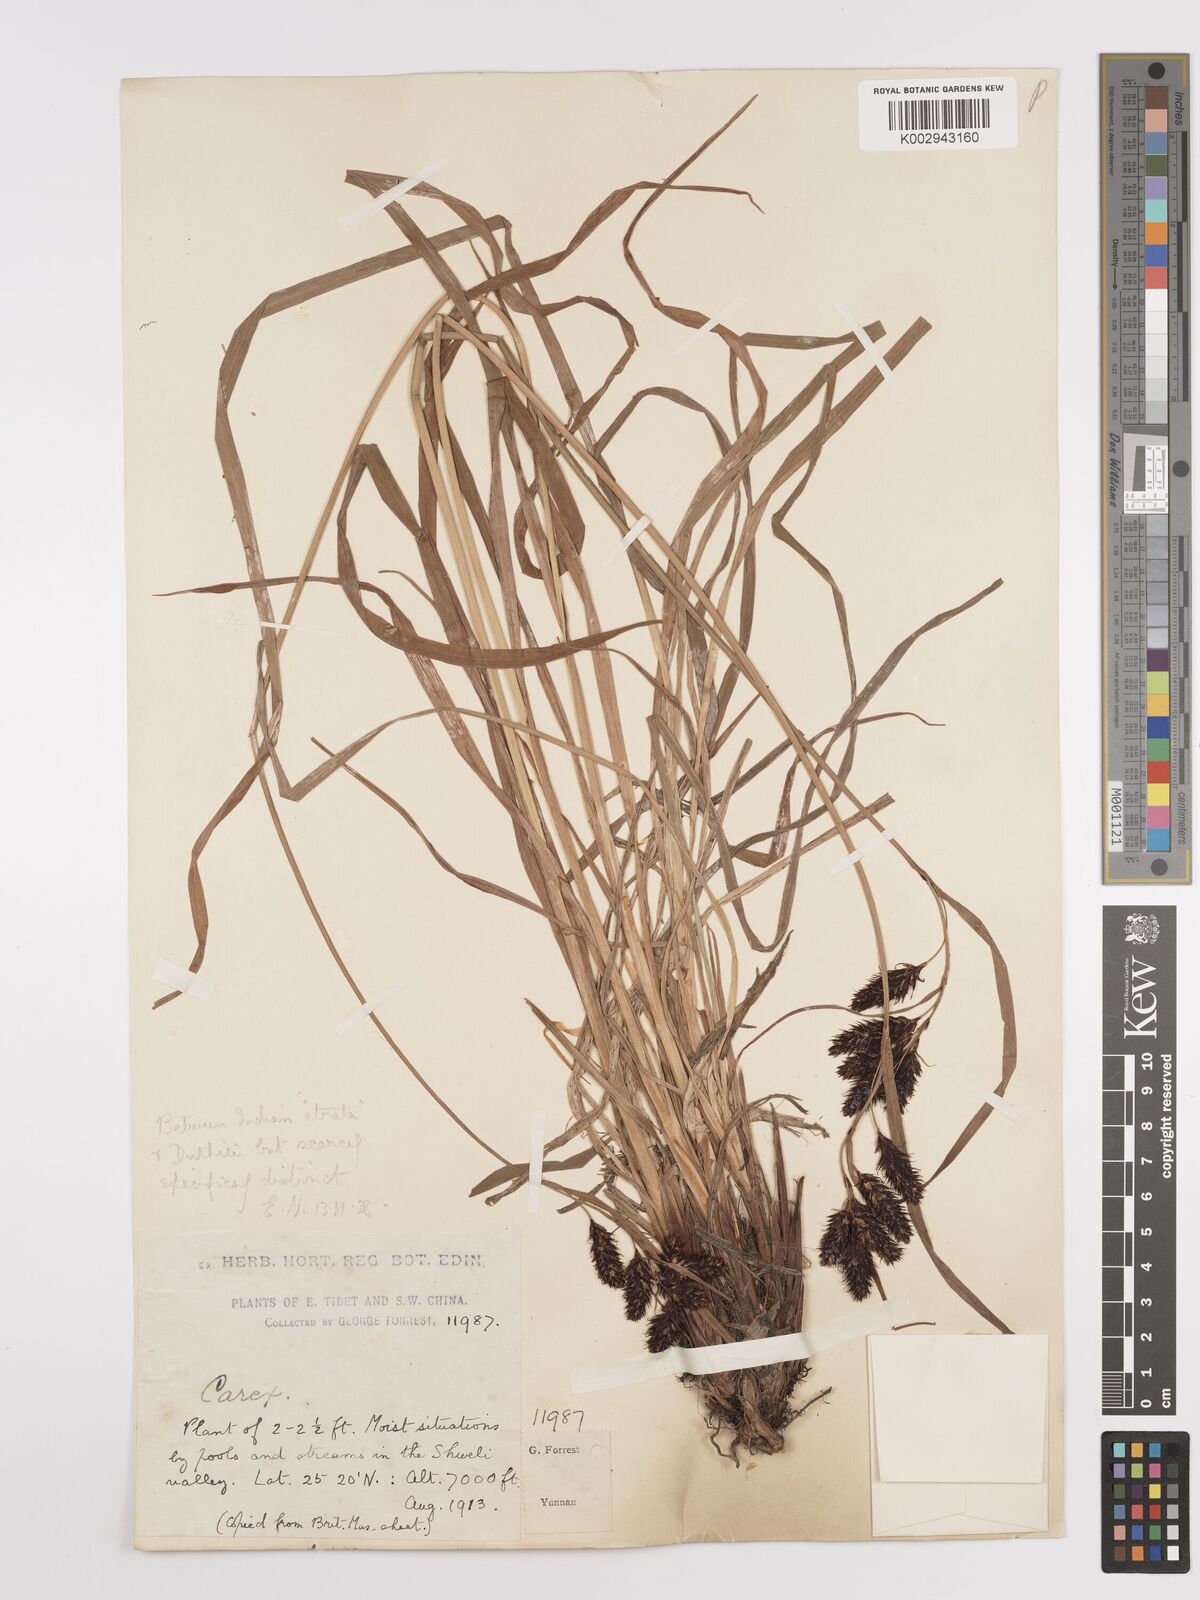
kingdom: Plantae
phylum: Tracheophyta
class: Liliopsida
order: Poales
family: Cyperaceae
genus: Carex
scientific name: Carex
